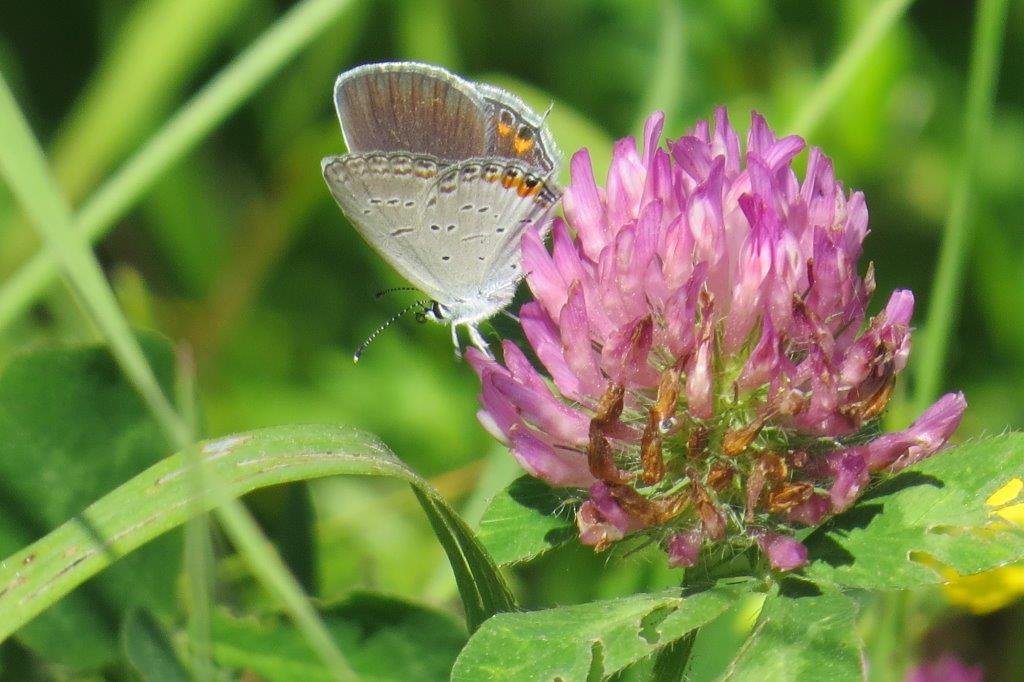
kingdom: Animalia
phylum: Arthropoda
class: Insecta
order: Lepidoptera
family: Lycaenidae
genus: Elkalyce
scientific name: Elkalyce comyntas
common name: Eastern Tailed-Blue
